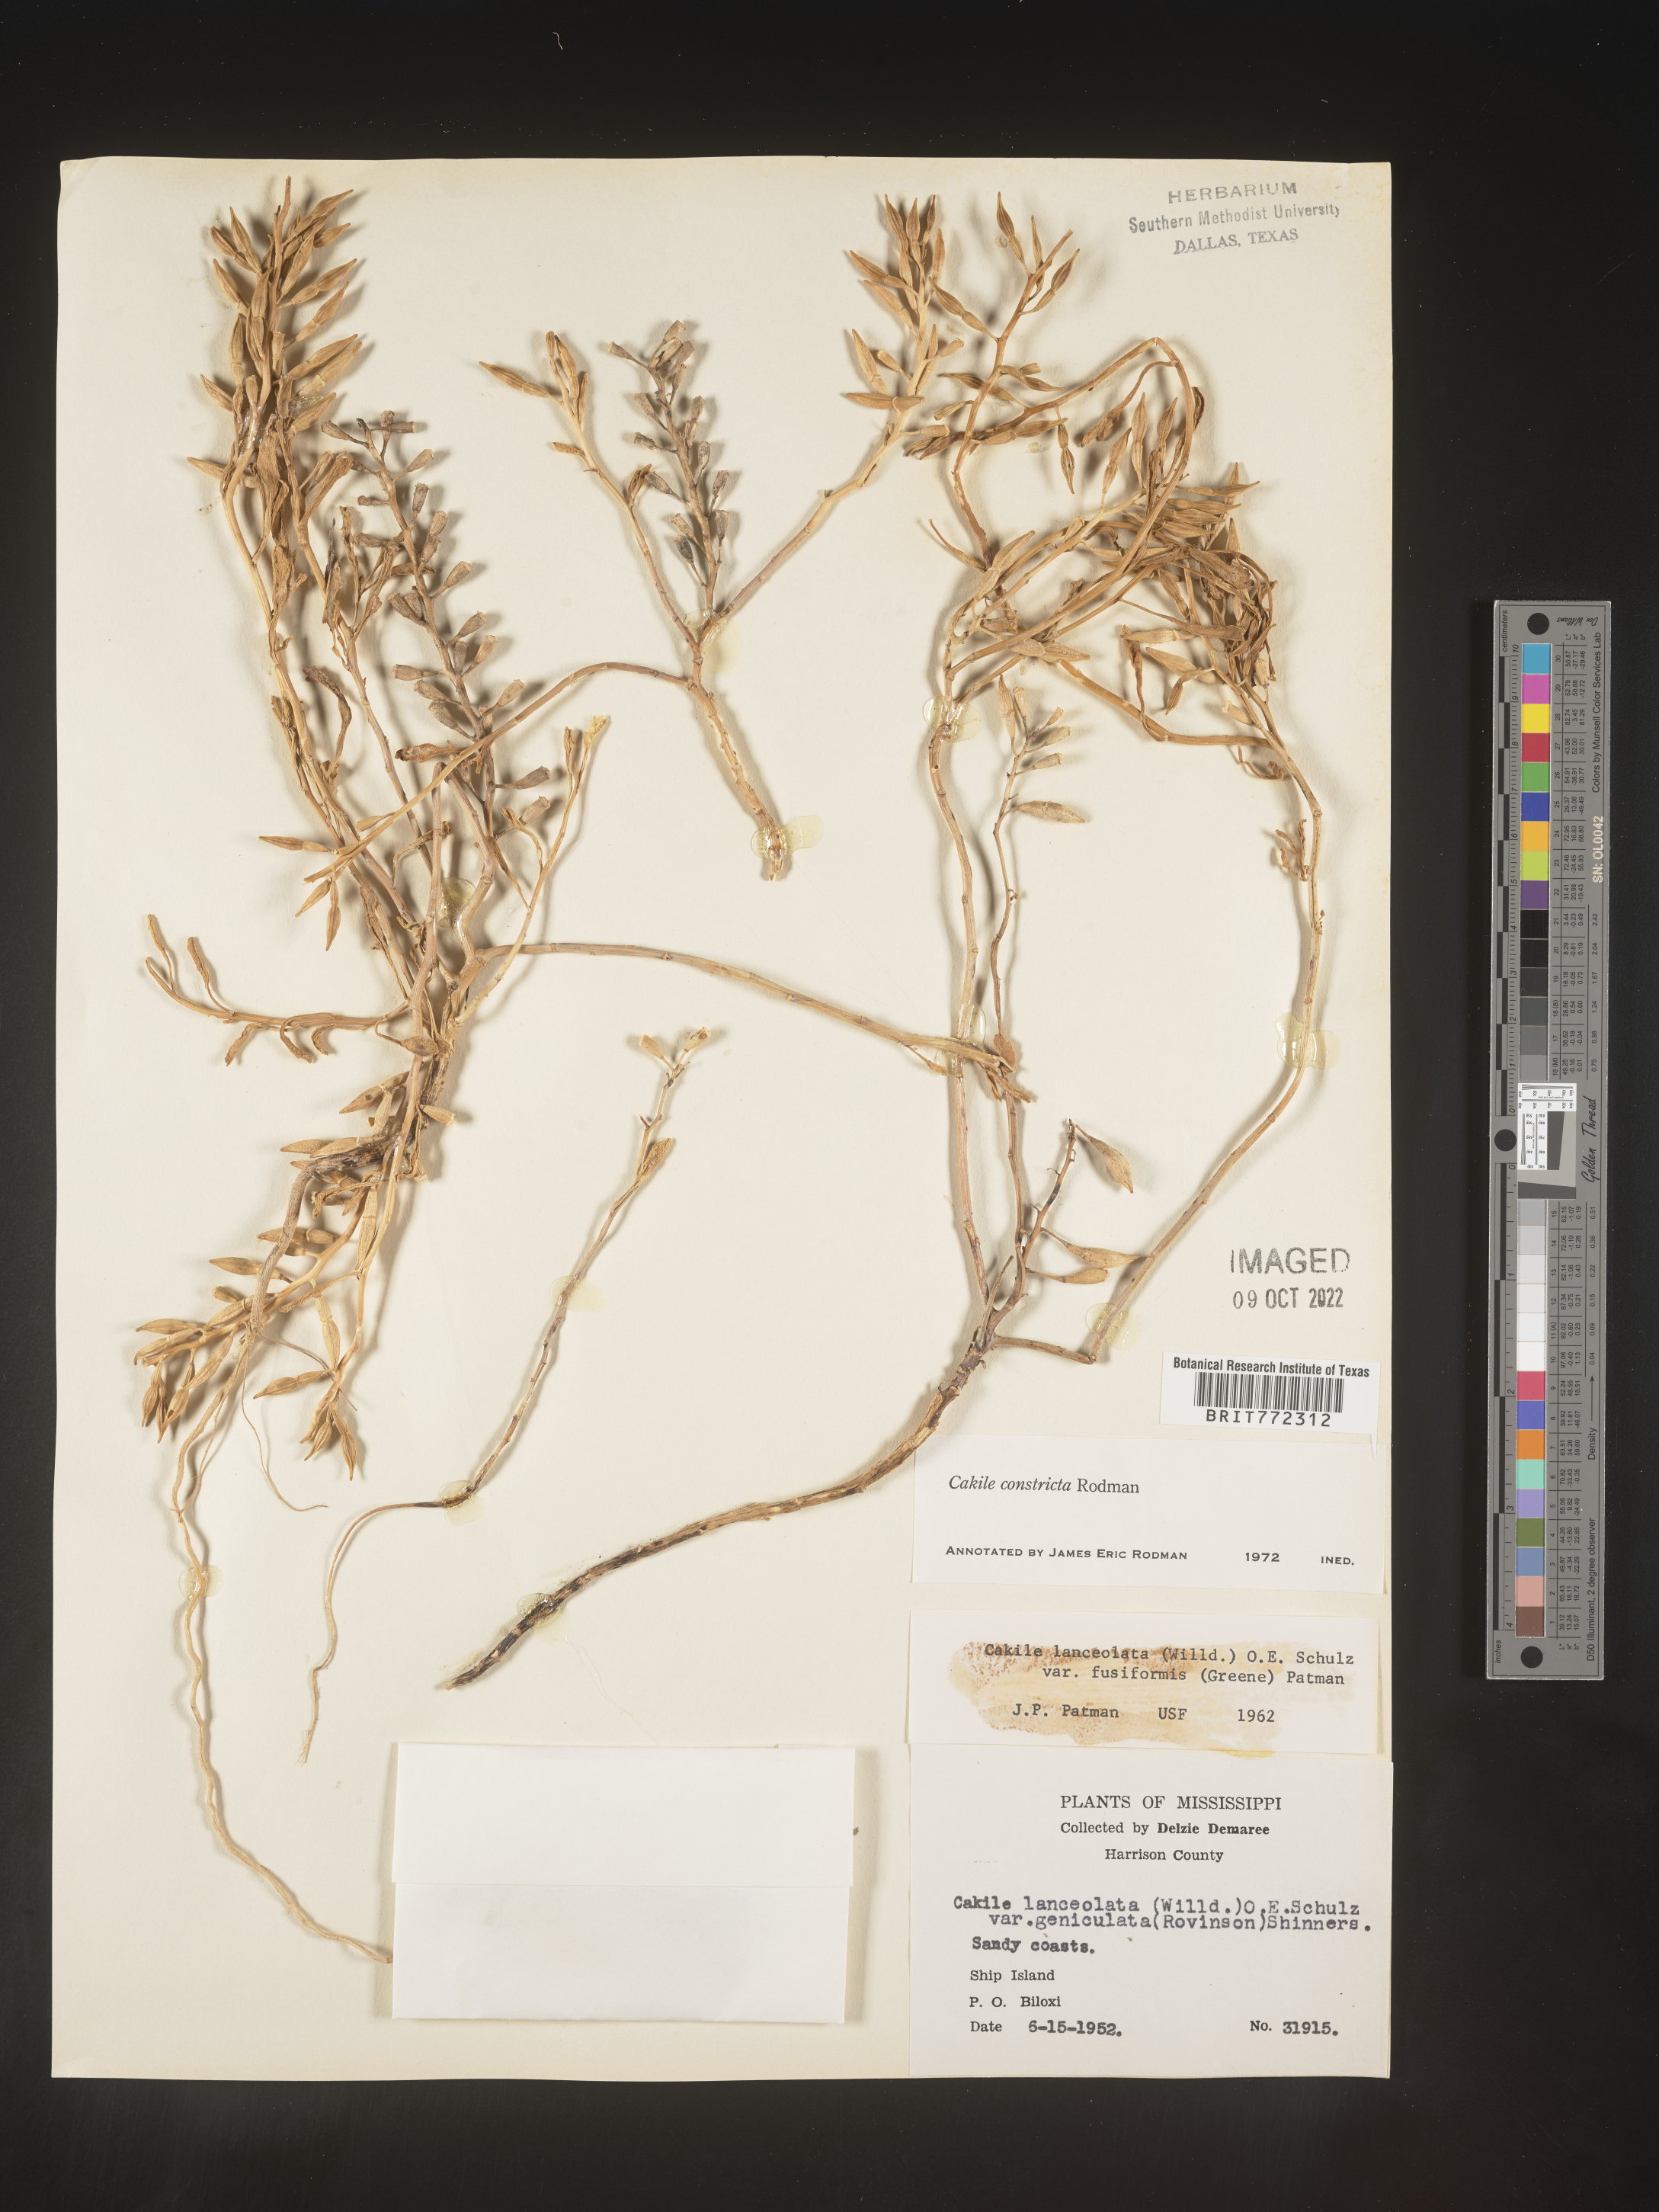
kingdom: Plantae
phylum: Tracheophyta
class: Magnoliopsida
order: Brassicales
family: Brassicaceae
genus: Cakile
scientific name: Cakile constricta
